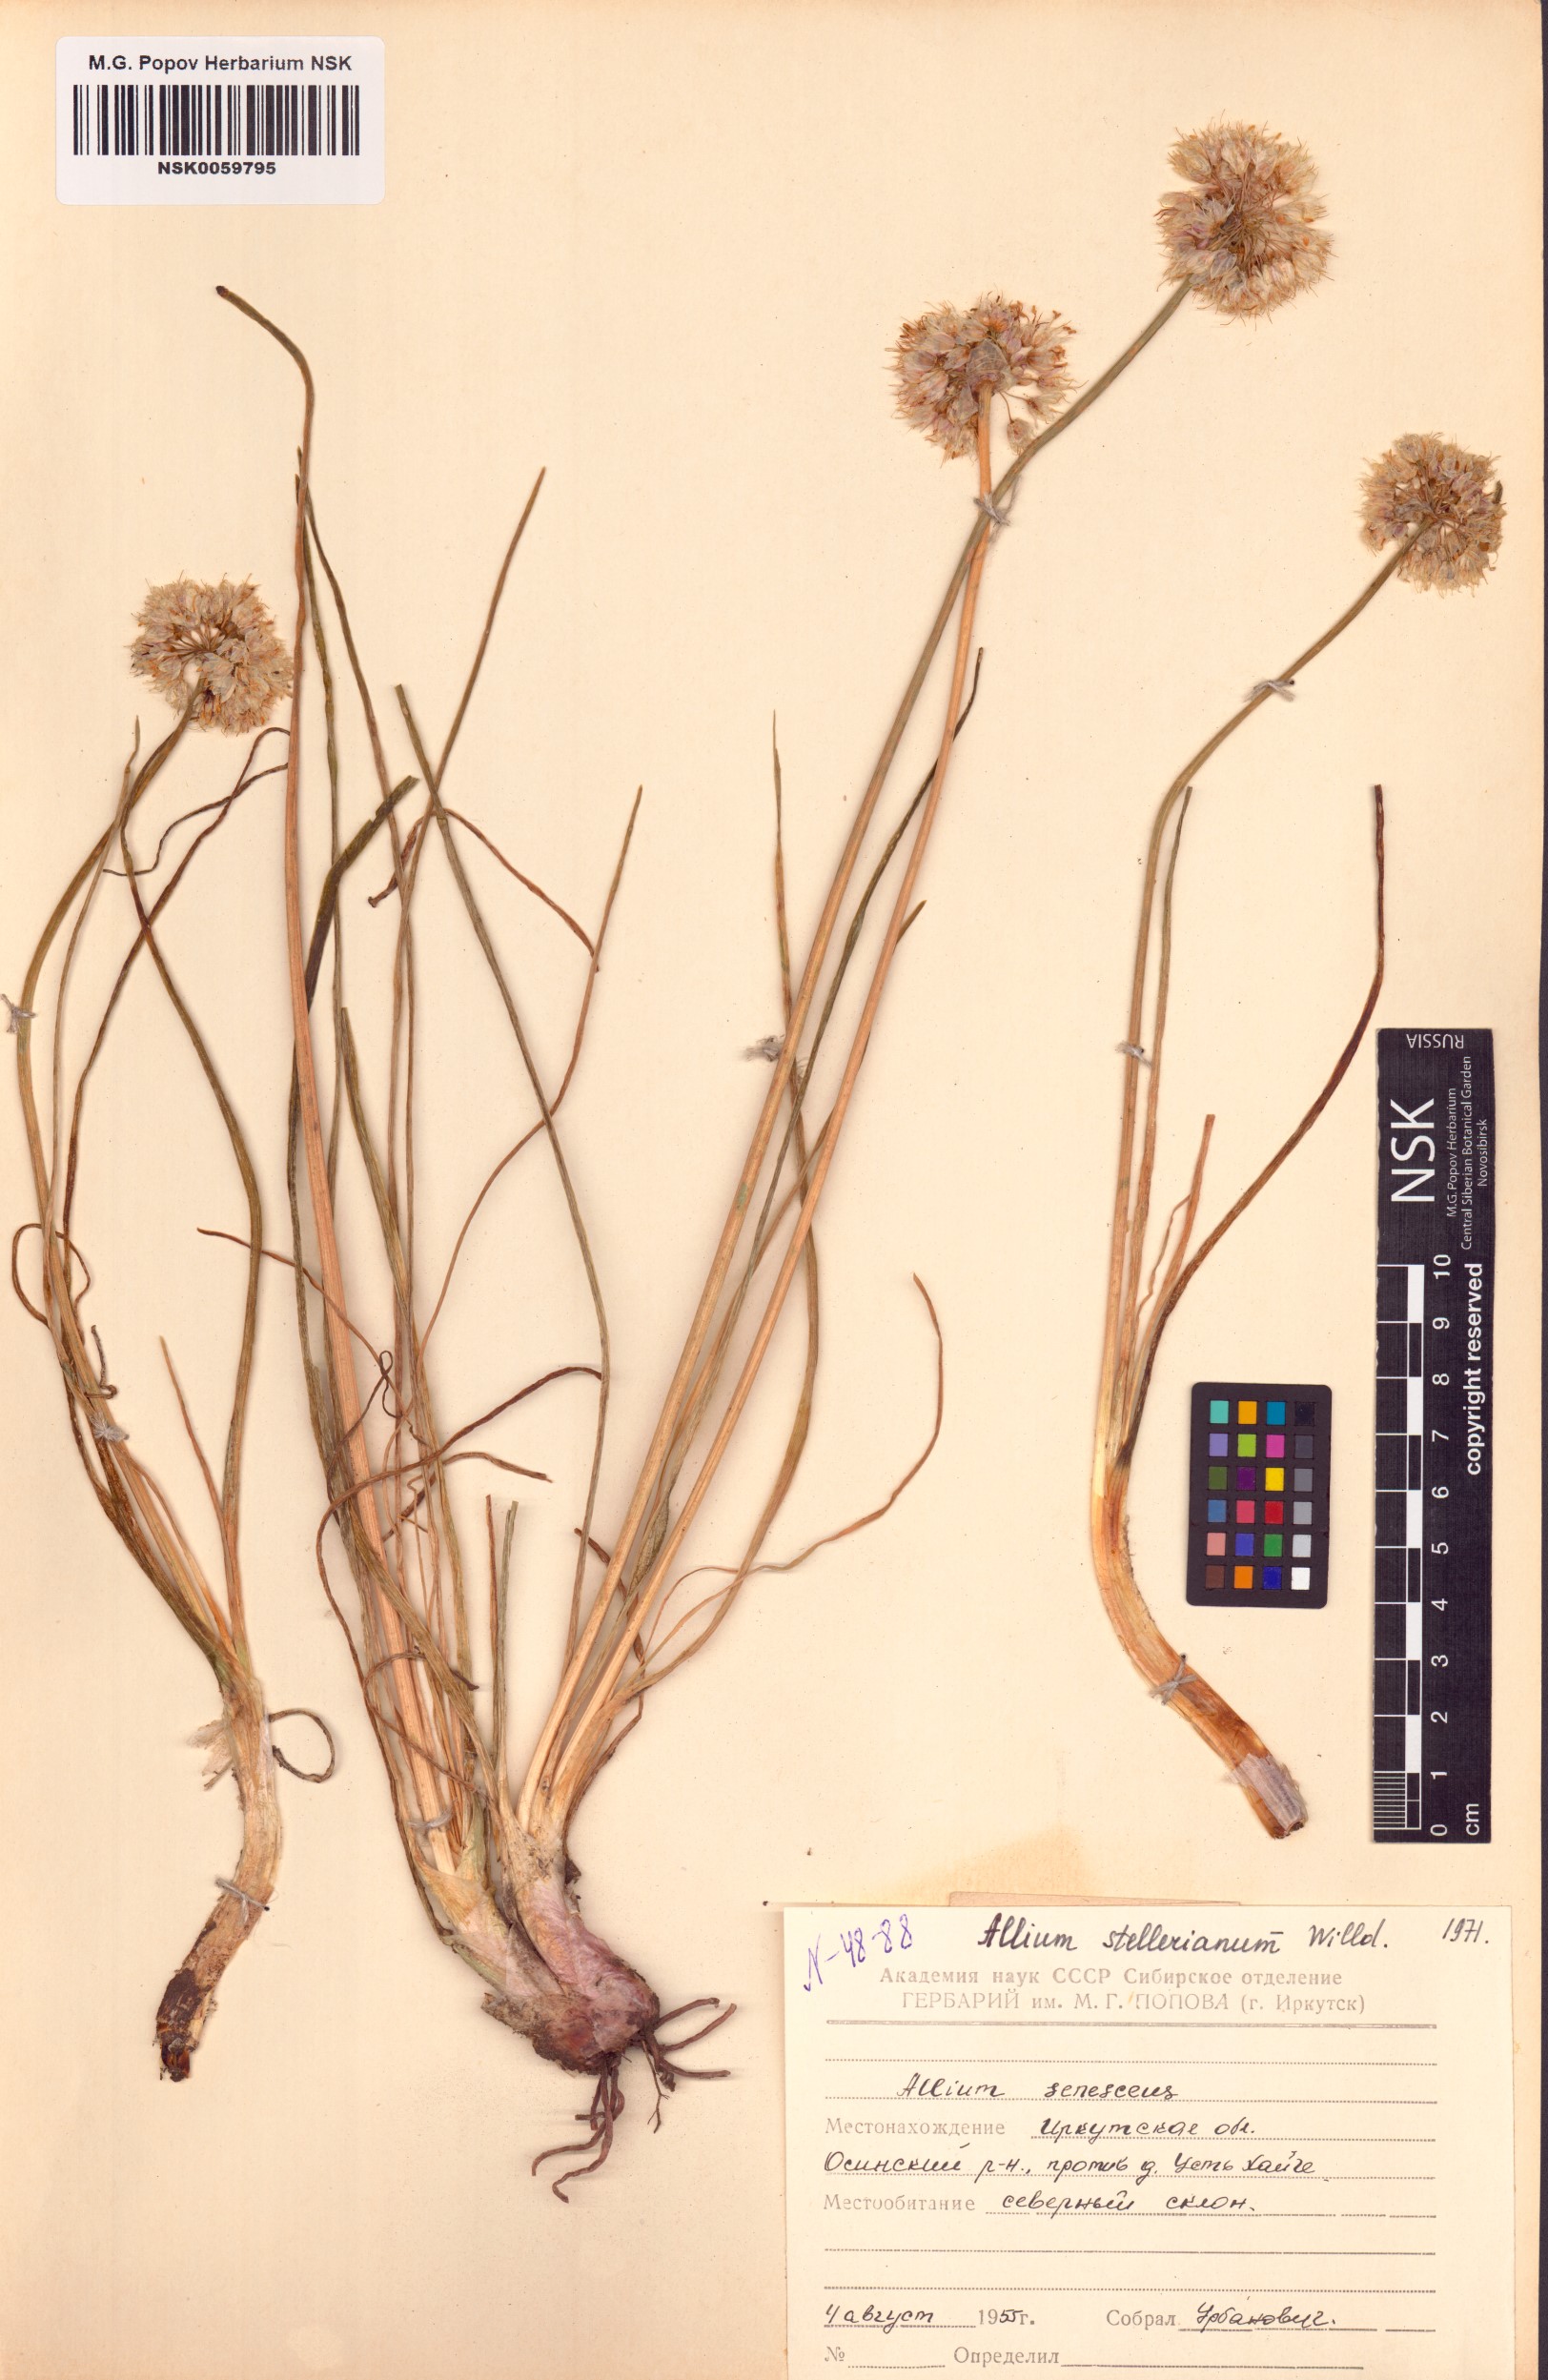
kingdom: Plantae
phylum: Tracheophyta
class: Liliopsida
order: Asparagales
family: Amaryllidaceae
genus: Allium
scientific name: Allium stellerianum
